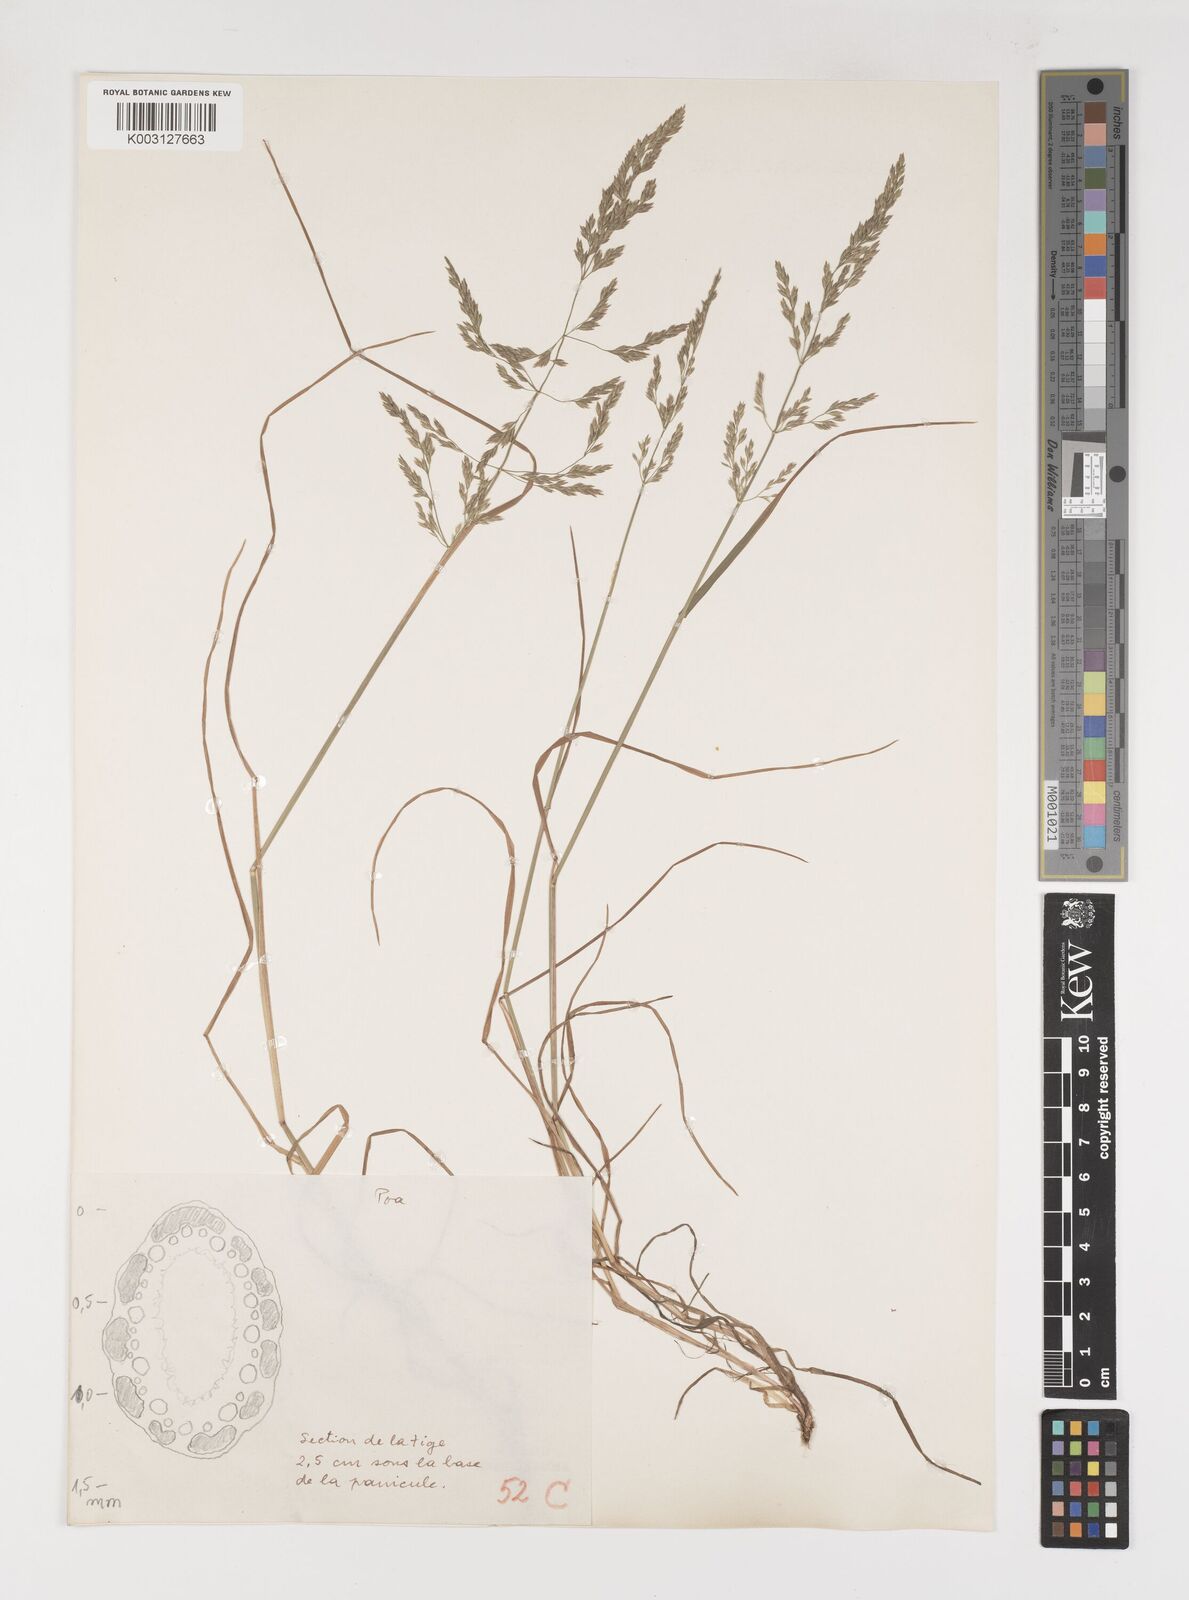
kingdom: Plantae
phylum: Tracheophyta
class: Liliopsida
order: Poales
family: Poaceae
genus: Poa
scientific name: Poa
